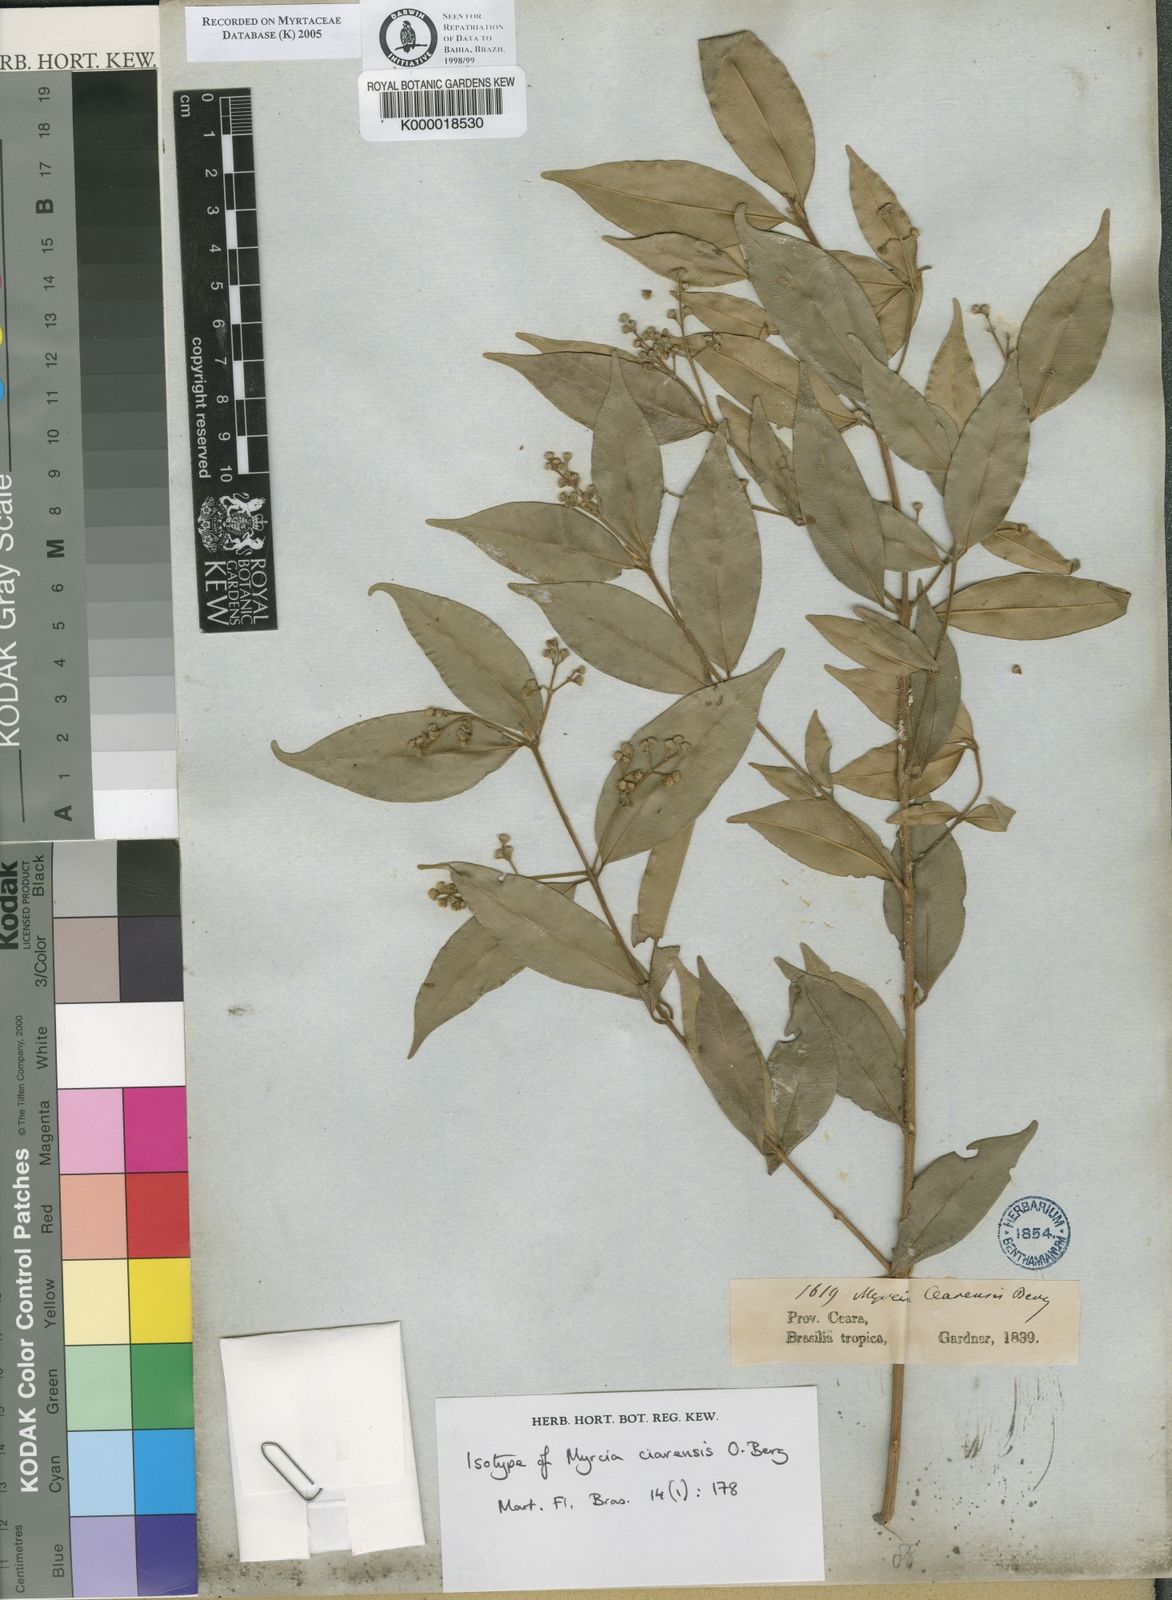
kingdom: Plantae
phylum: Tracheophyta
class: Magnoliopsida
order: Myrtales
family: Myrtaceae
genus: Myrcia
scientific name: Myrcia splendens
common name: Surinam cherry
